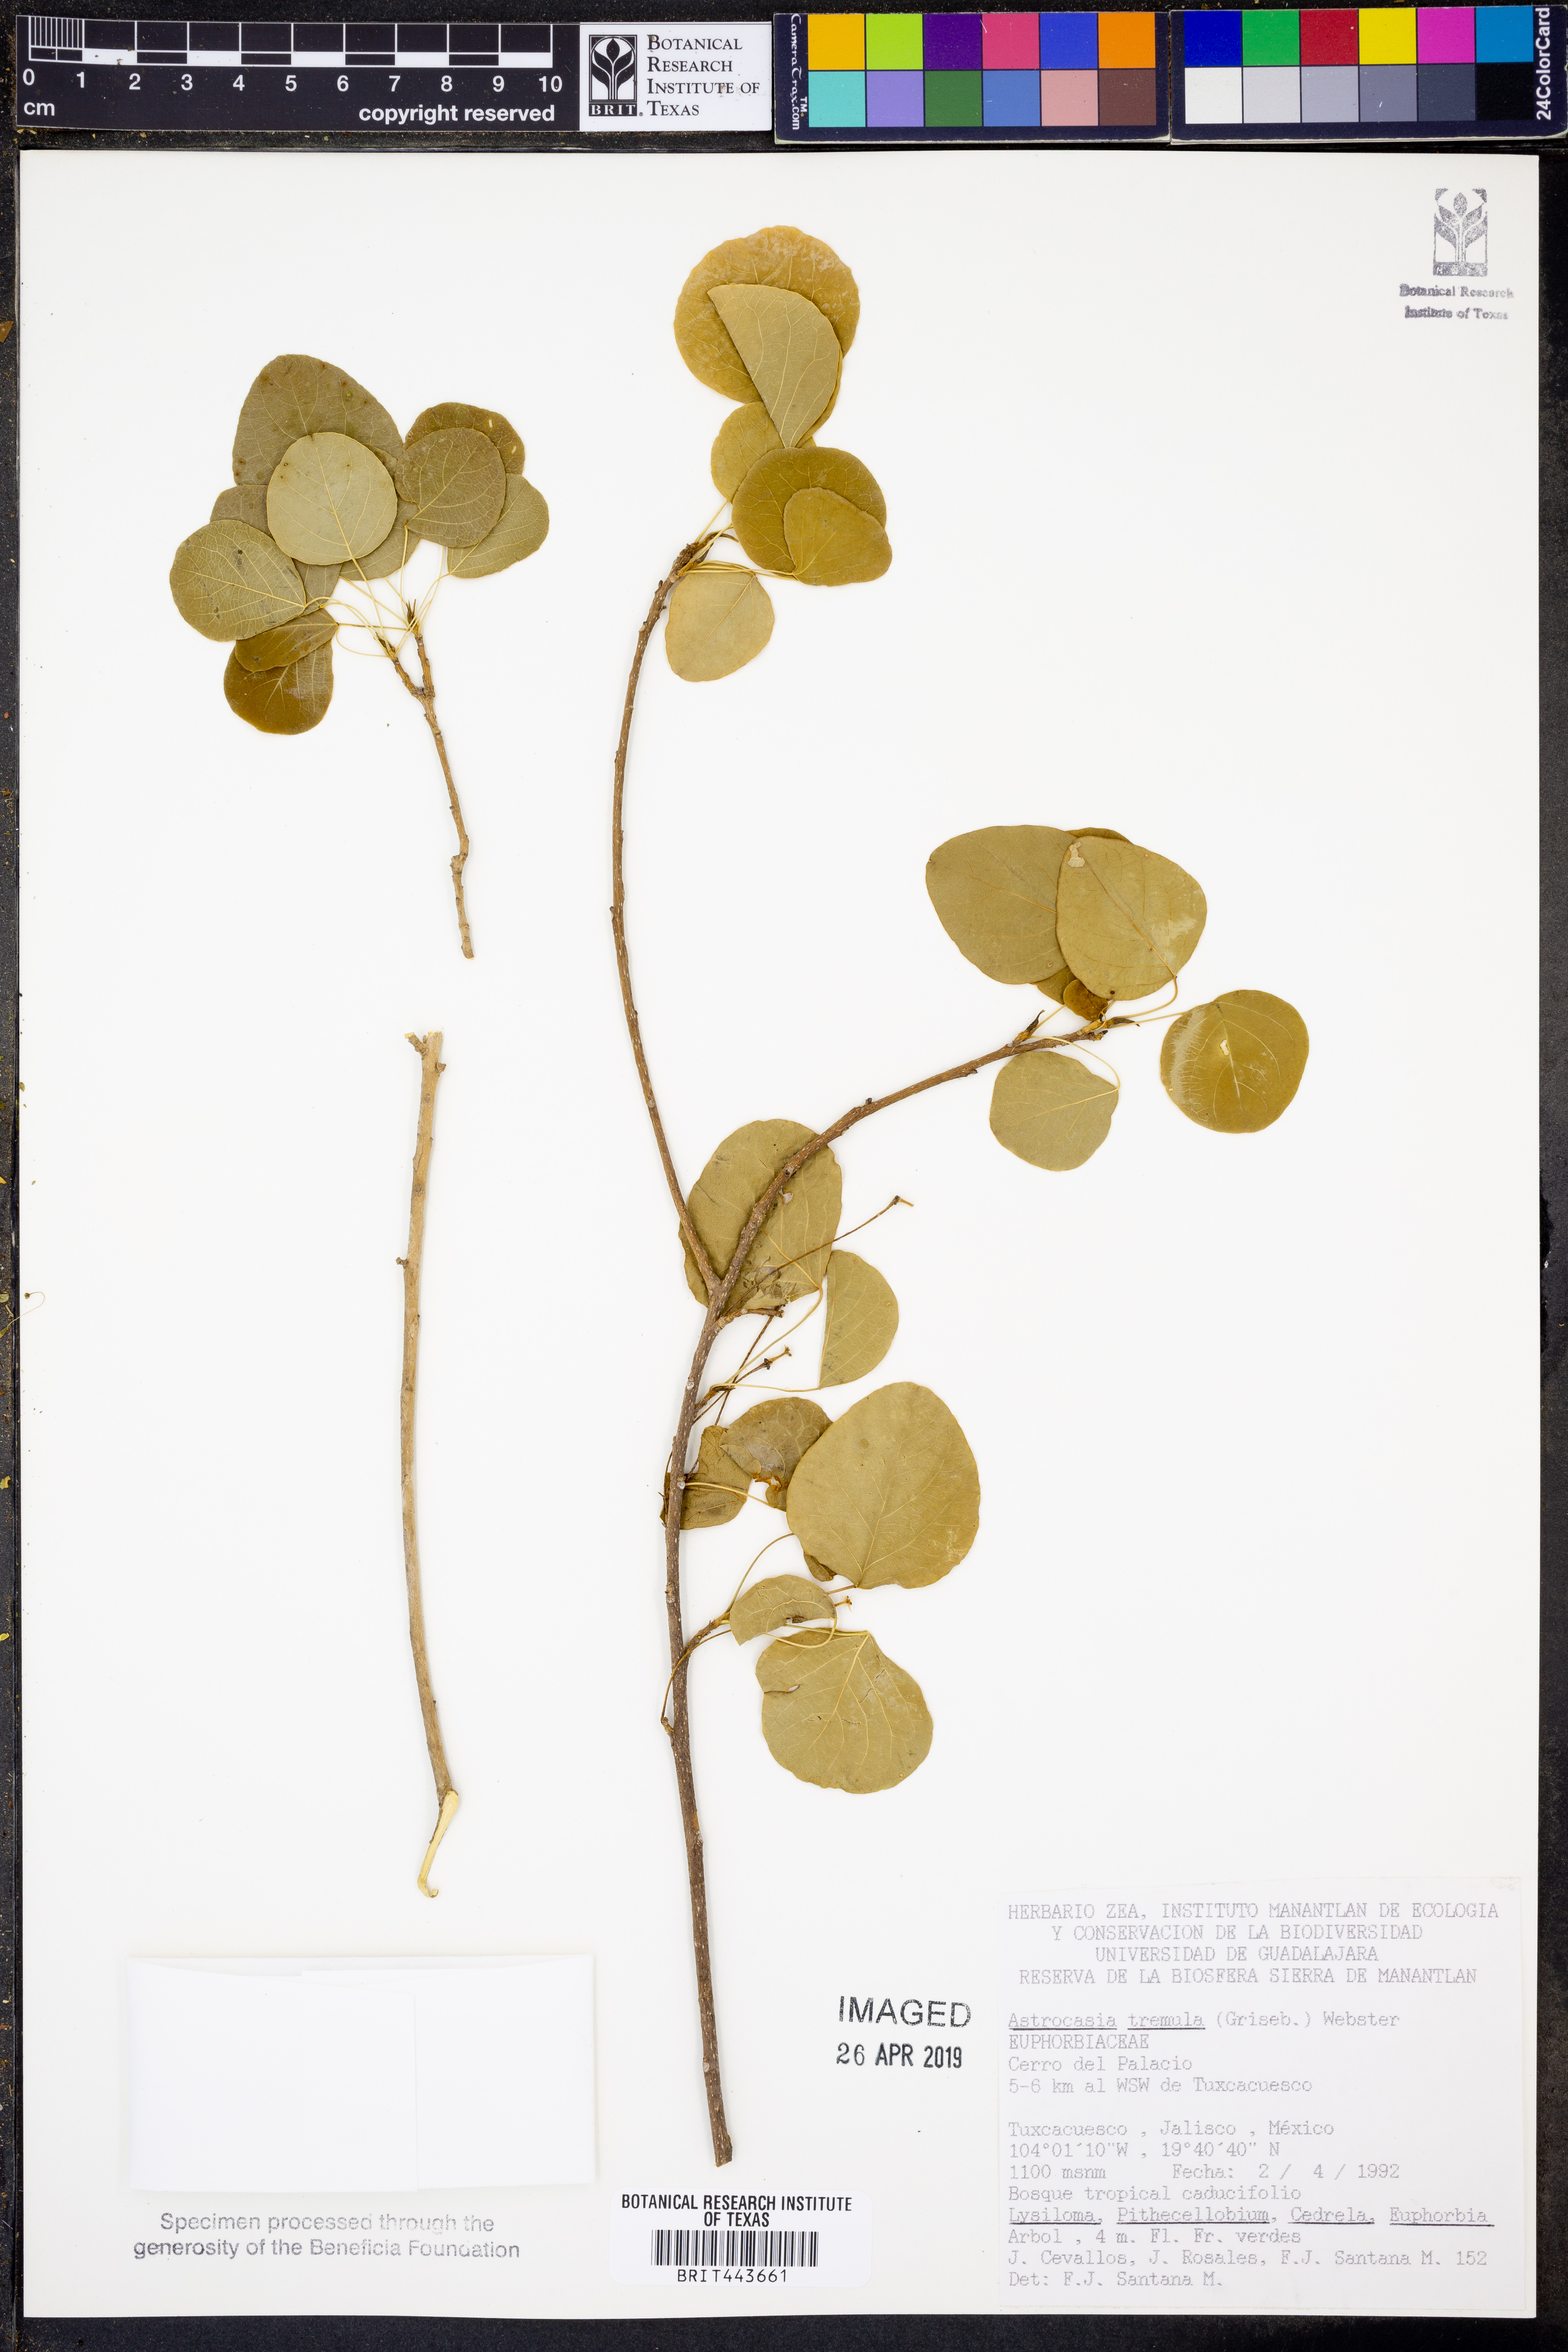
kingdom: Plantae
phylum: Tracheophyta
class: Magnoliopsida
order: Malpighiales
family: Phyllanthaceae
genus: Astrocasia
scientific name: Astrocasia tremula
